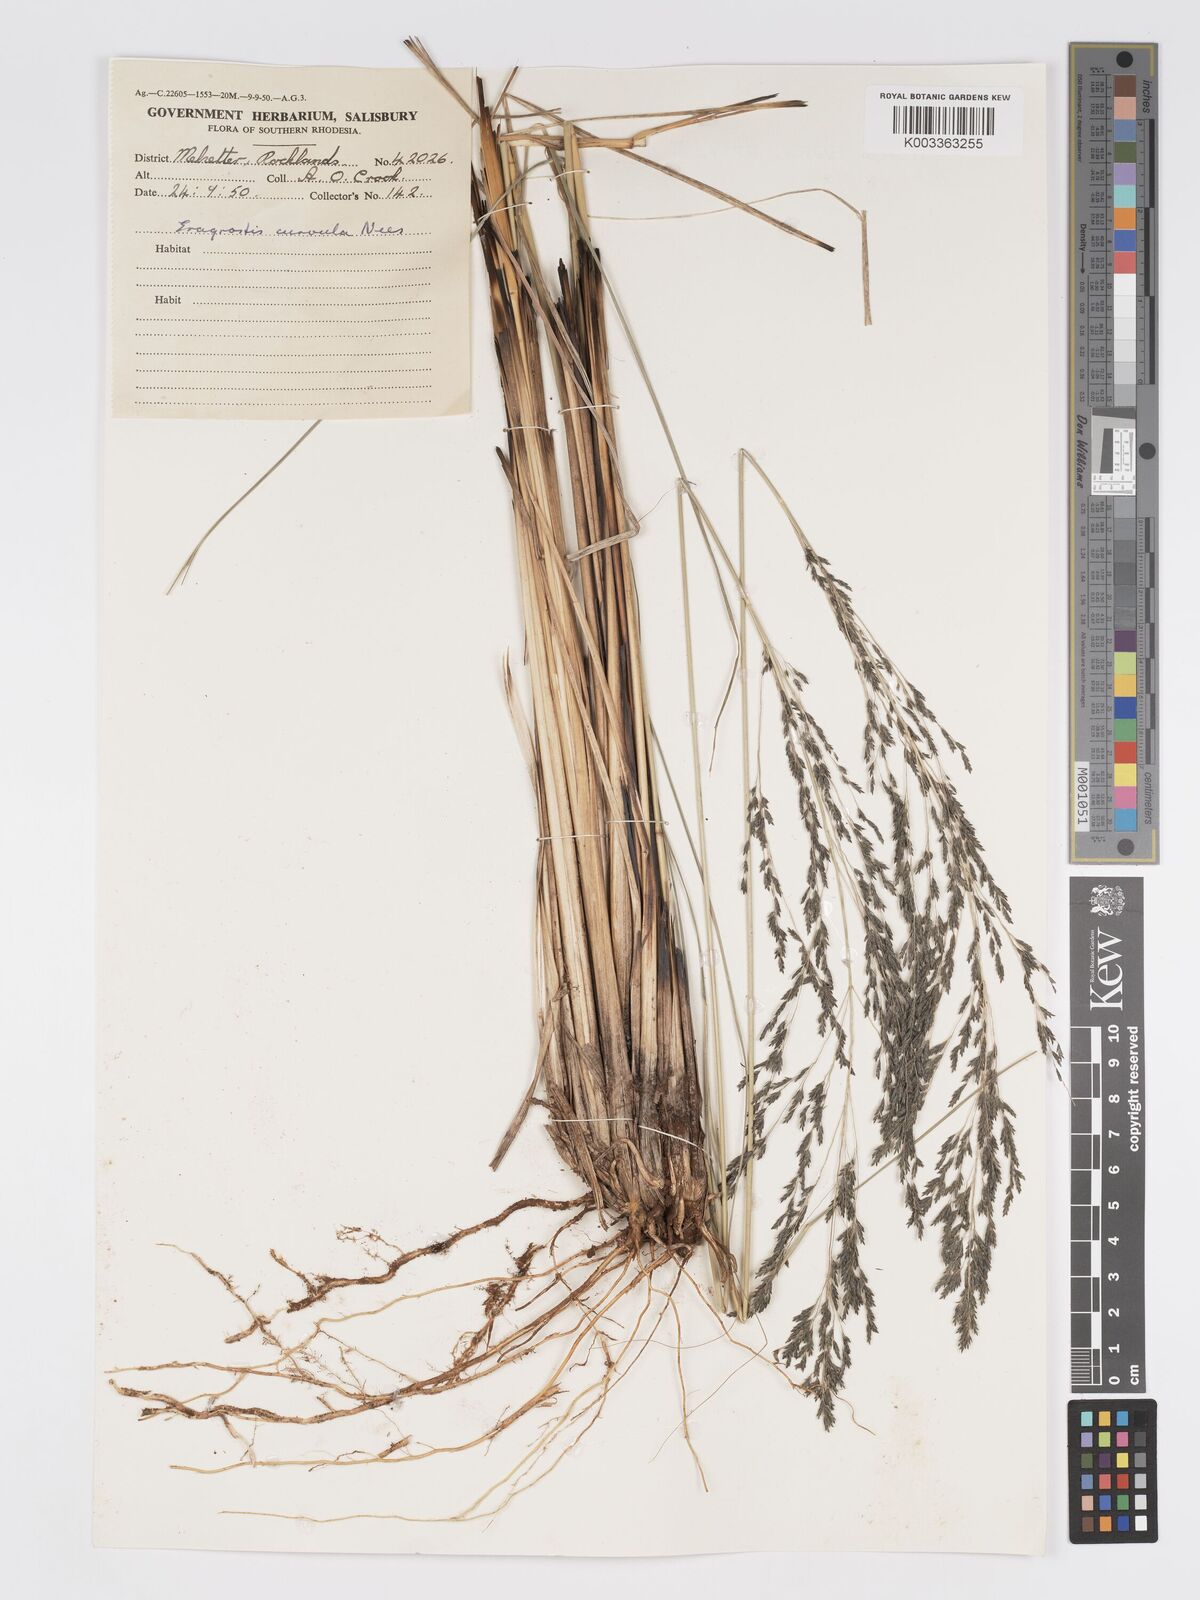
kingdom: Plantae
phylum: Tracheophyta
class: Liliopsida
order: Poales
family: Poaceae
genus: Eragrostis
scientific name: Eragrostis curvula
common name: African love-grass
